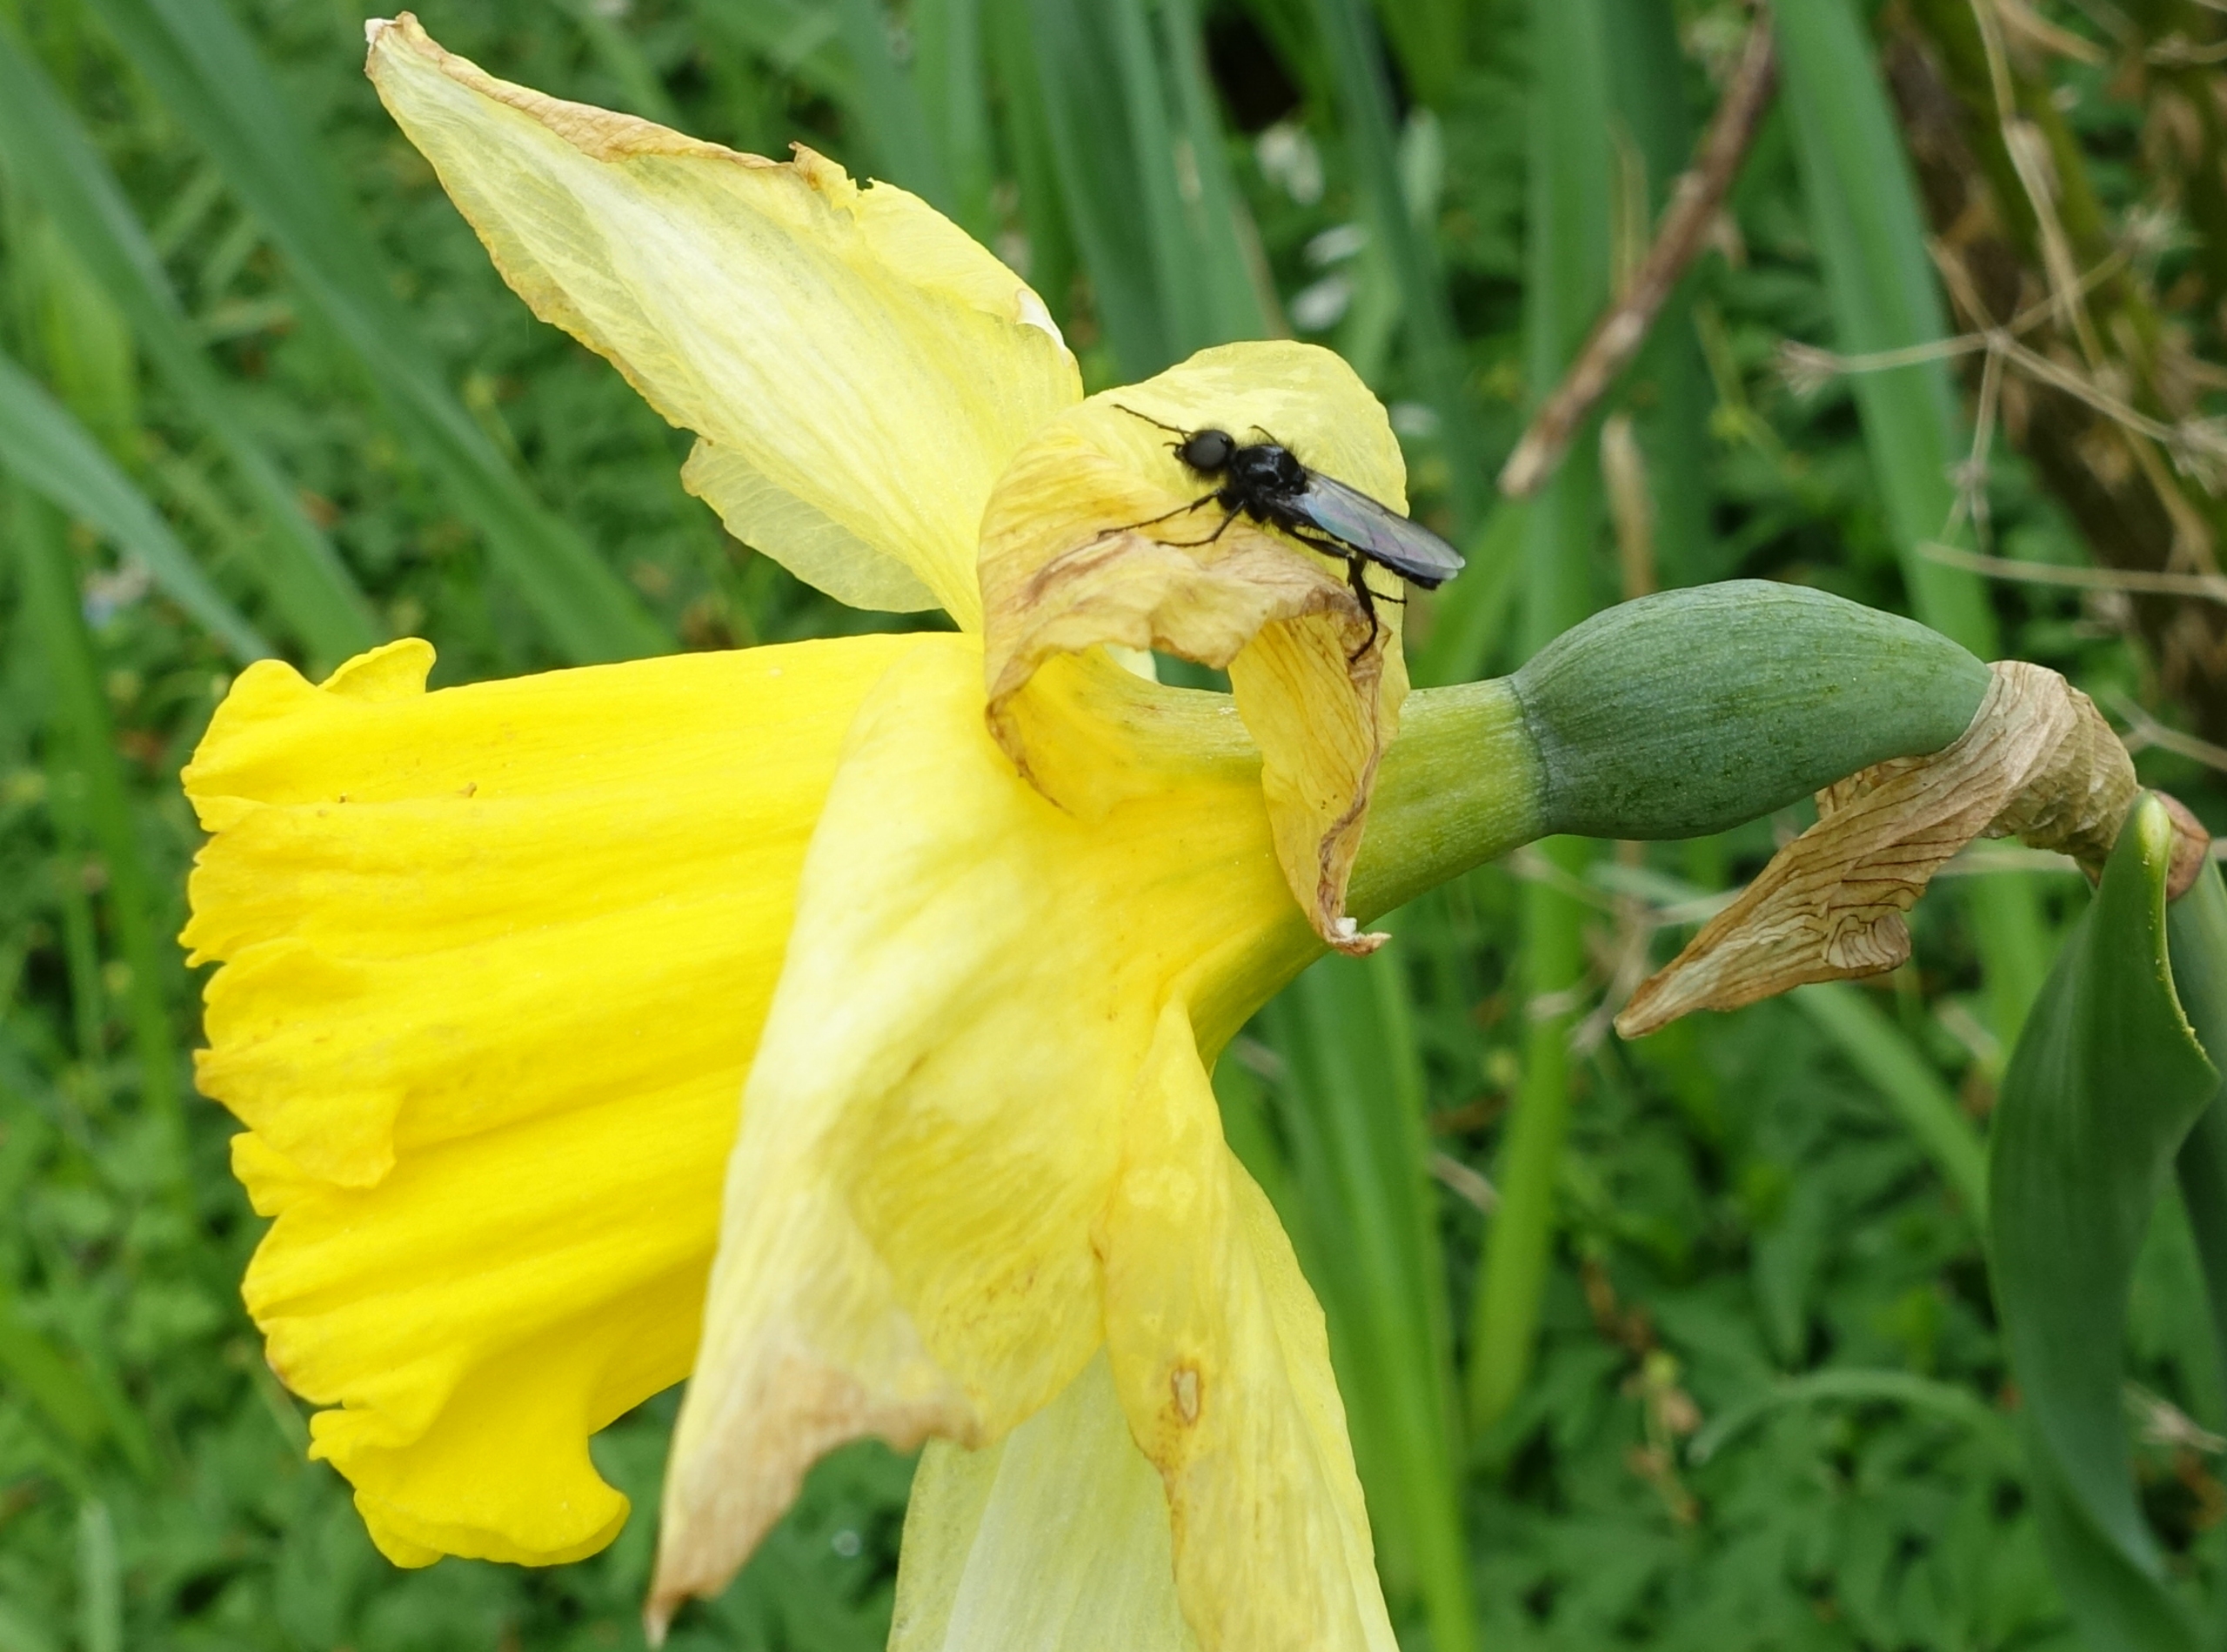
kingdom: Animalia
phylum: Arthropoda
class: Insecta
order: Diptera
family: Bibionidae
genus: Bibio
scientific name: Bibio marci
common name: Skovhårmyg
